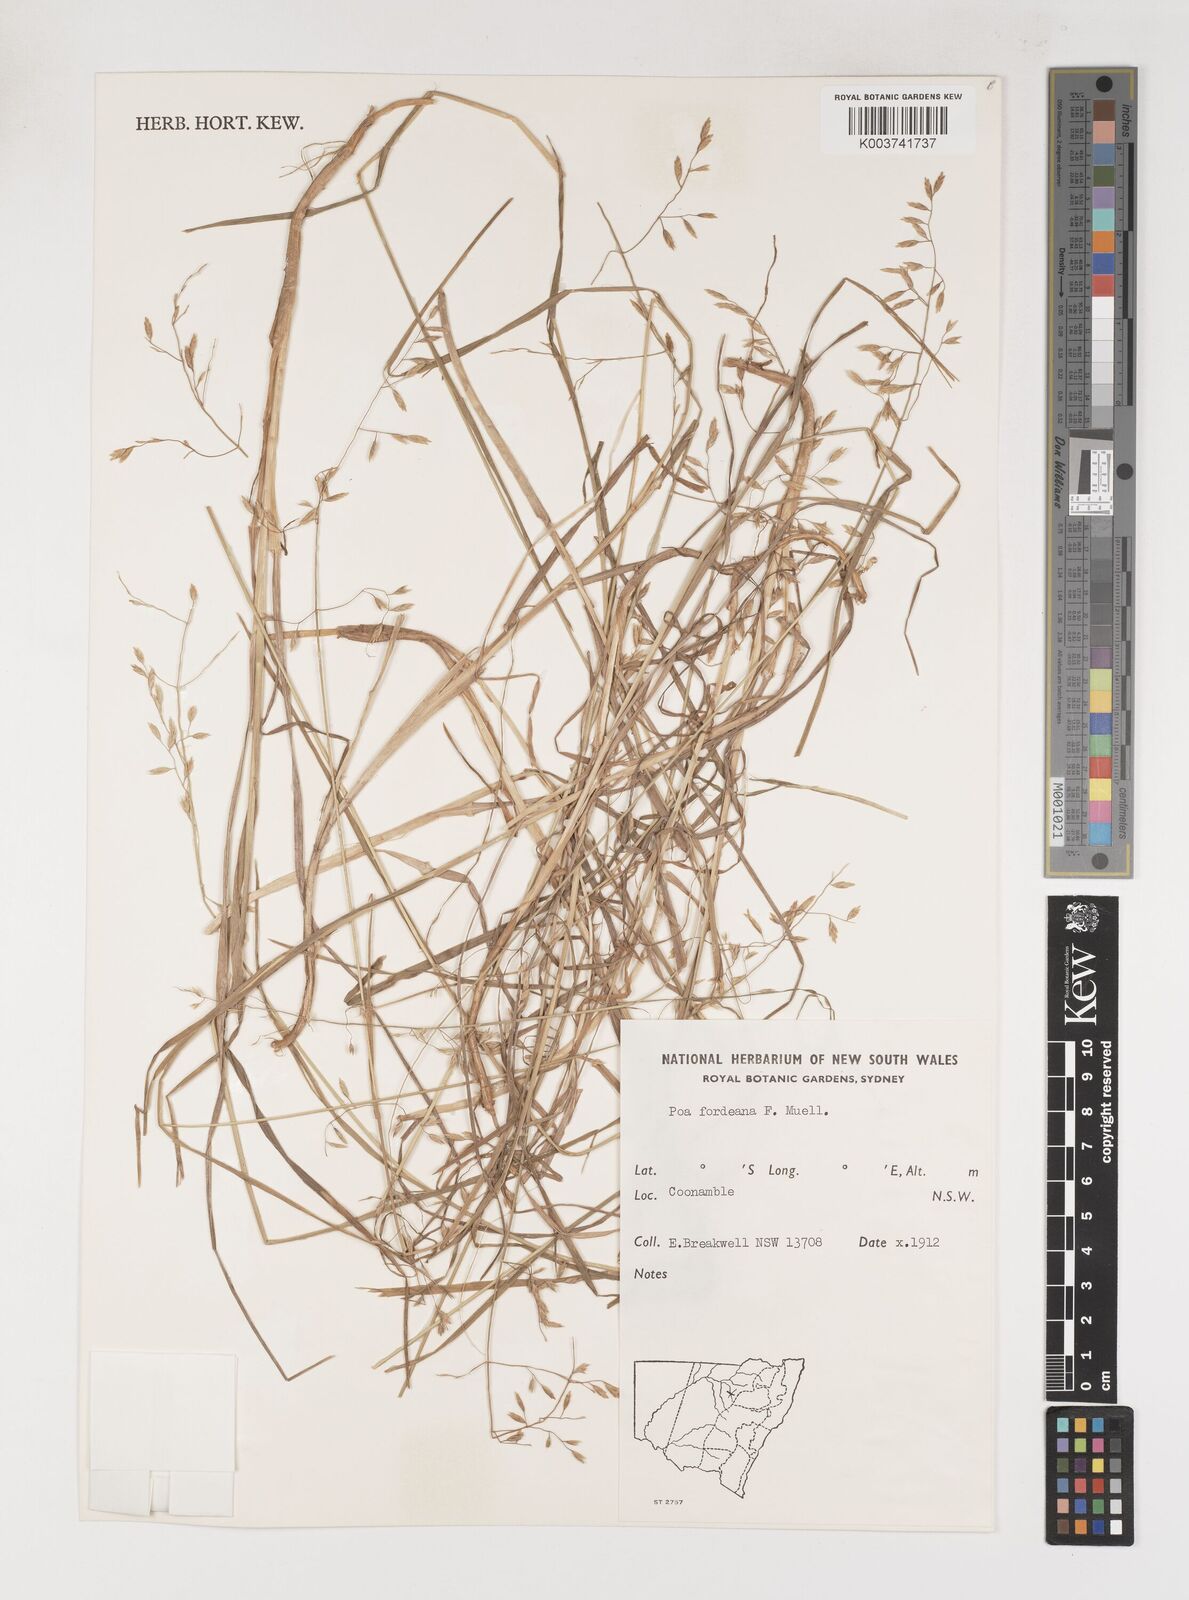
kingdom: Plantae
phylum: Tracheophyta
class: Liliopsida
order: Poales
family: Poaceae
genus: Poa
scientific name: Poa fordeana
